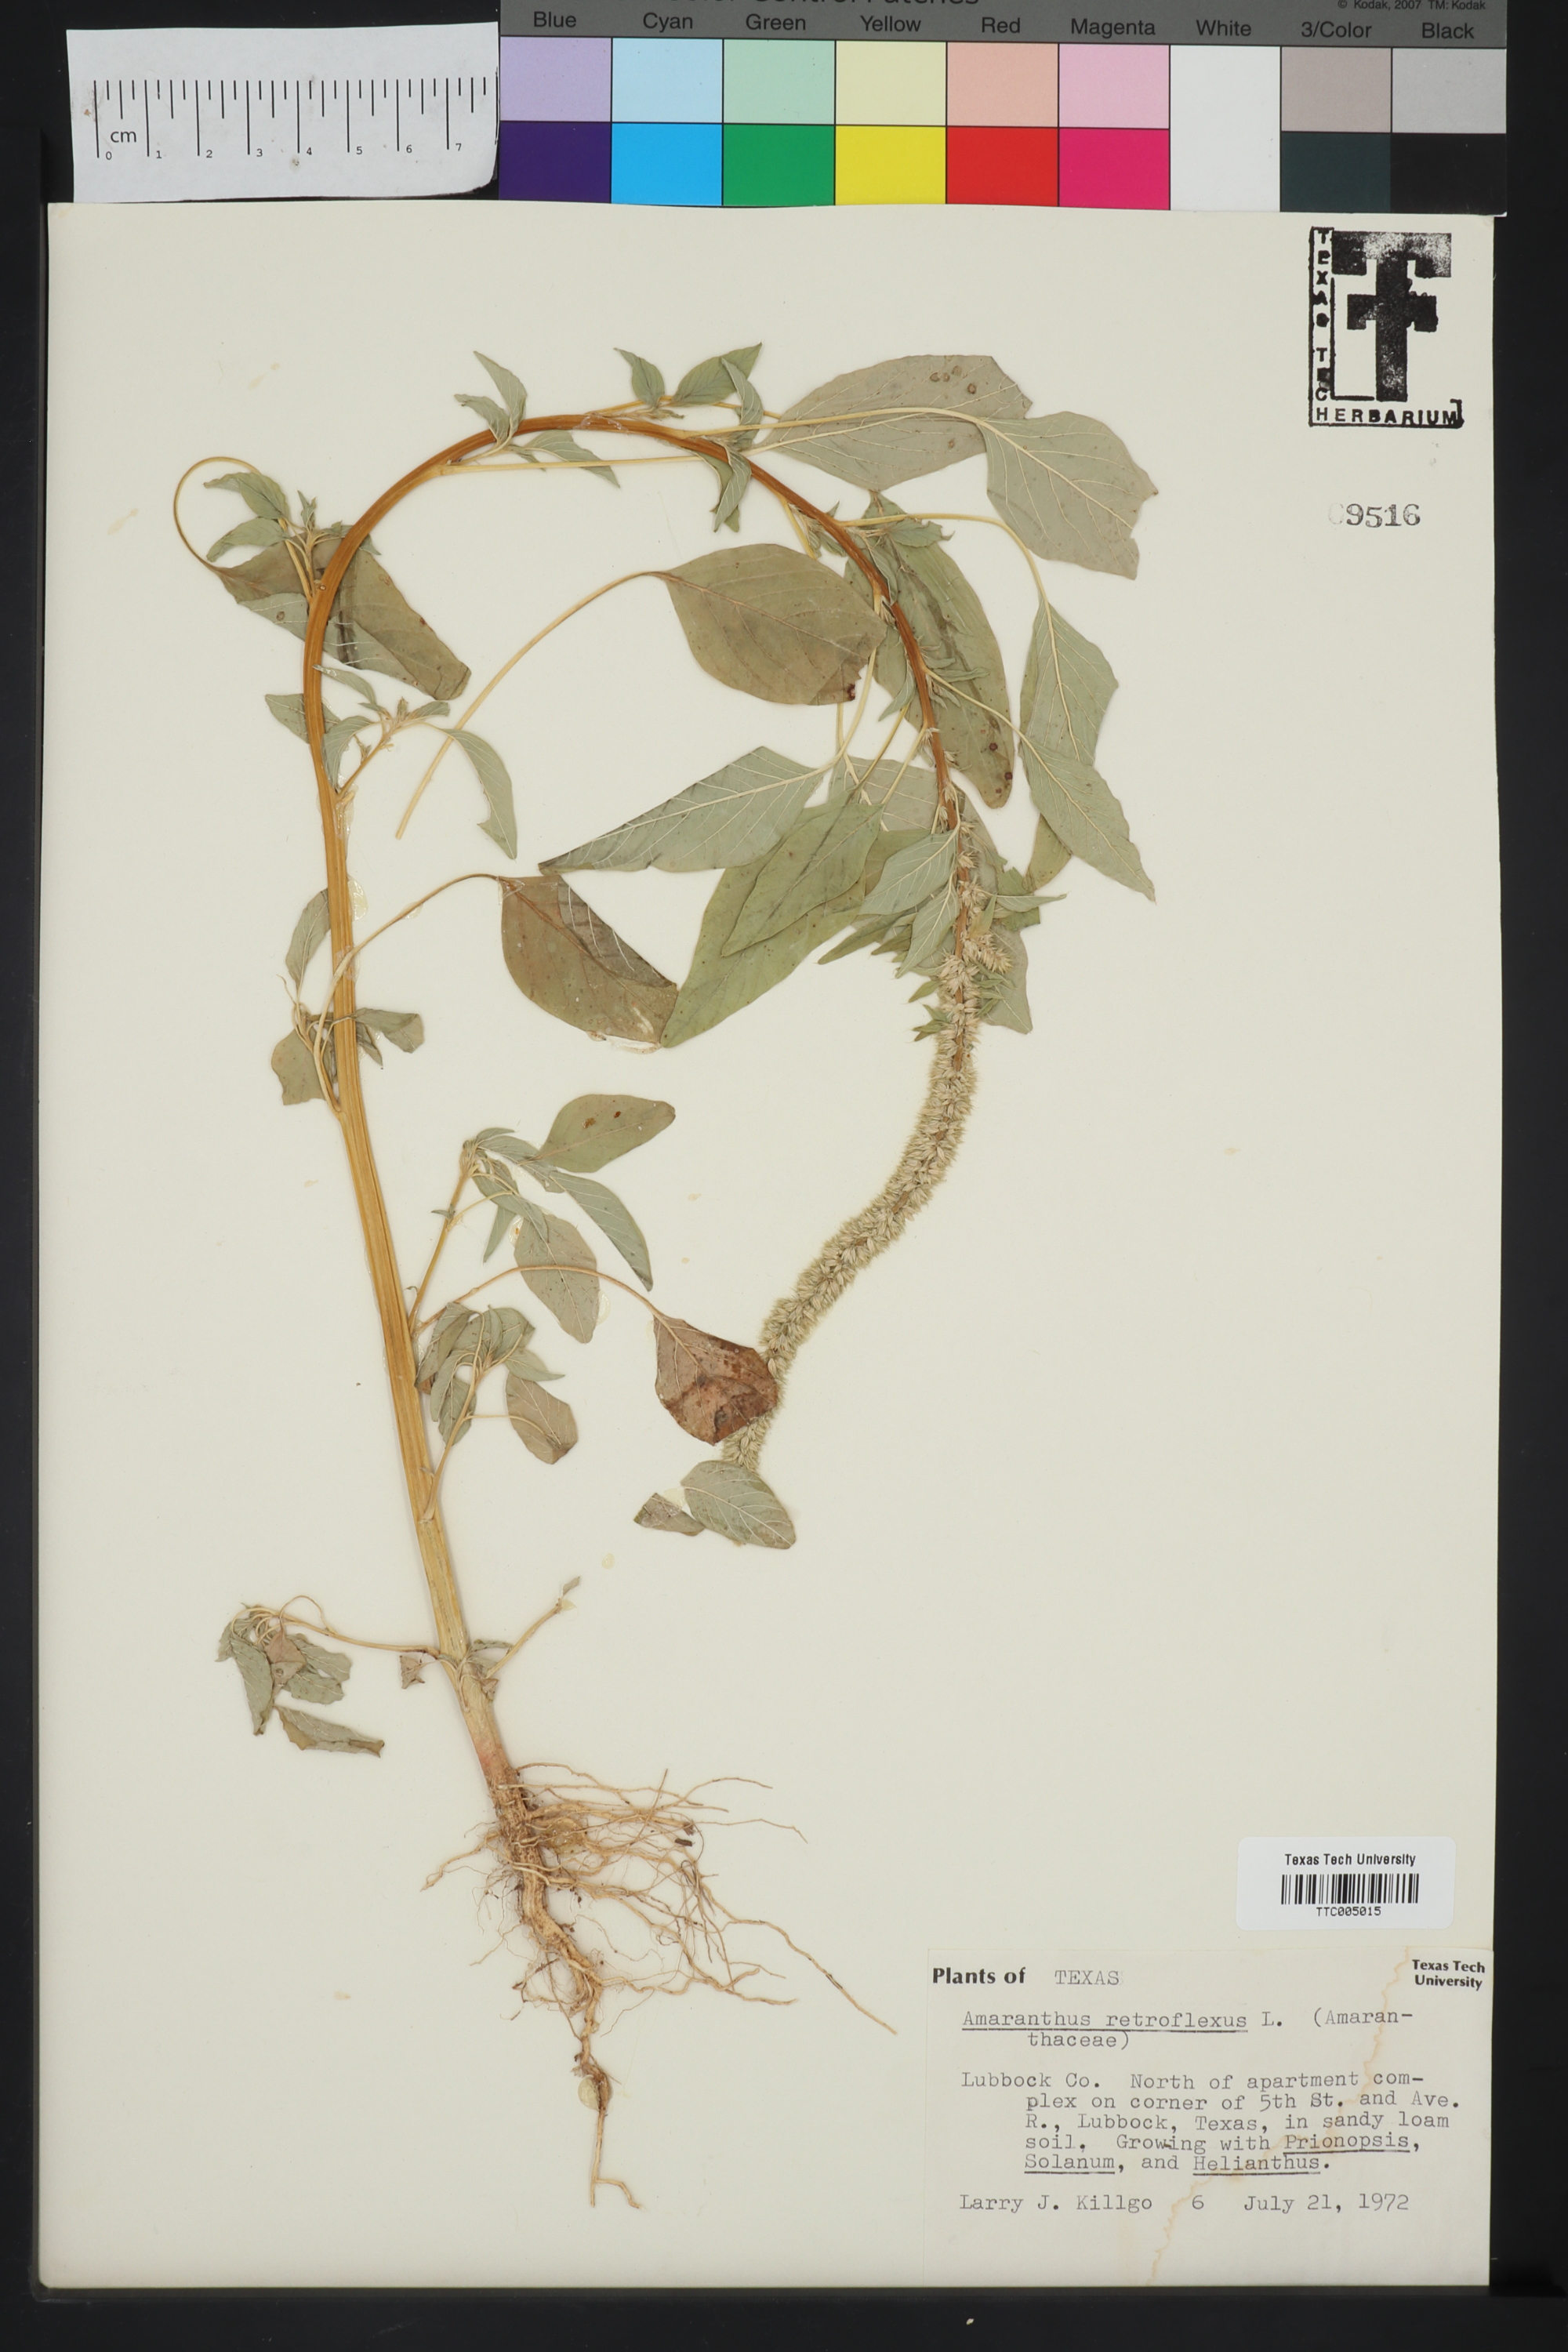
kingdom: Plantae
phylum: Tracheophyta
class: Magnoliopsida
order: Caryophyllales
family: Amaranthaceae
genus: Amaranthus
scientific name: Amaranthus retroflexus
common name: Redroot amaranth
